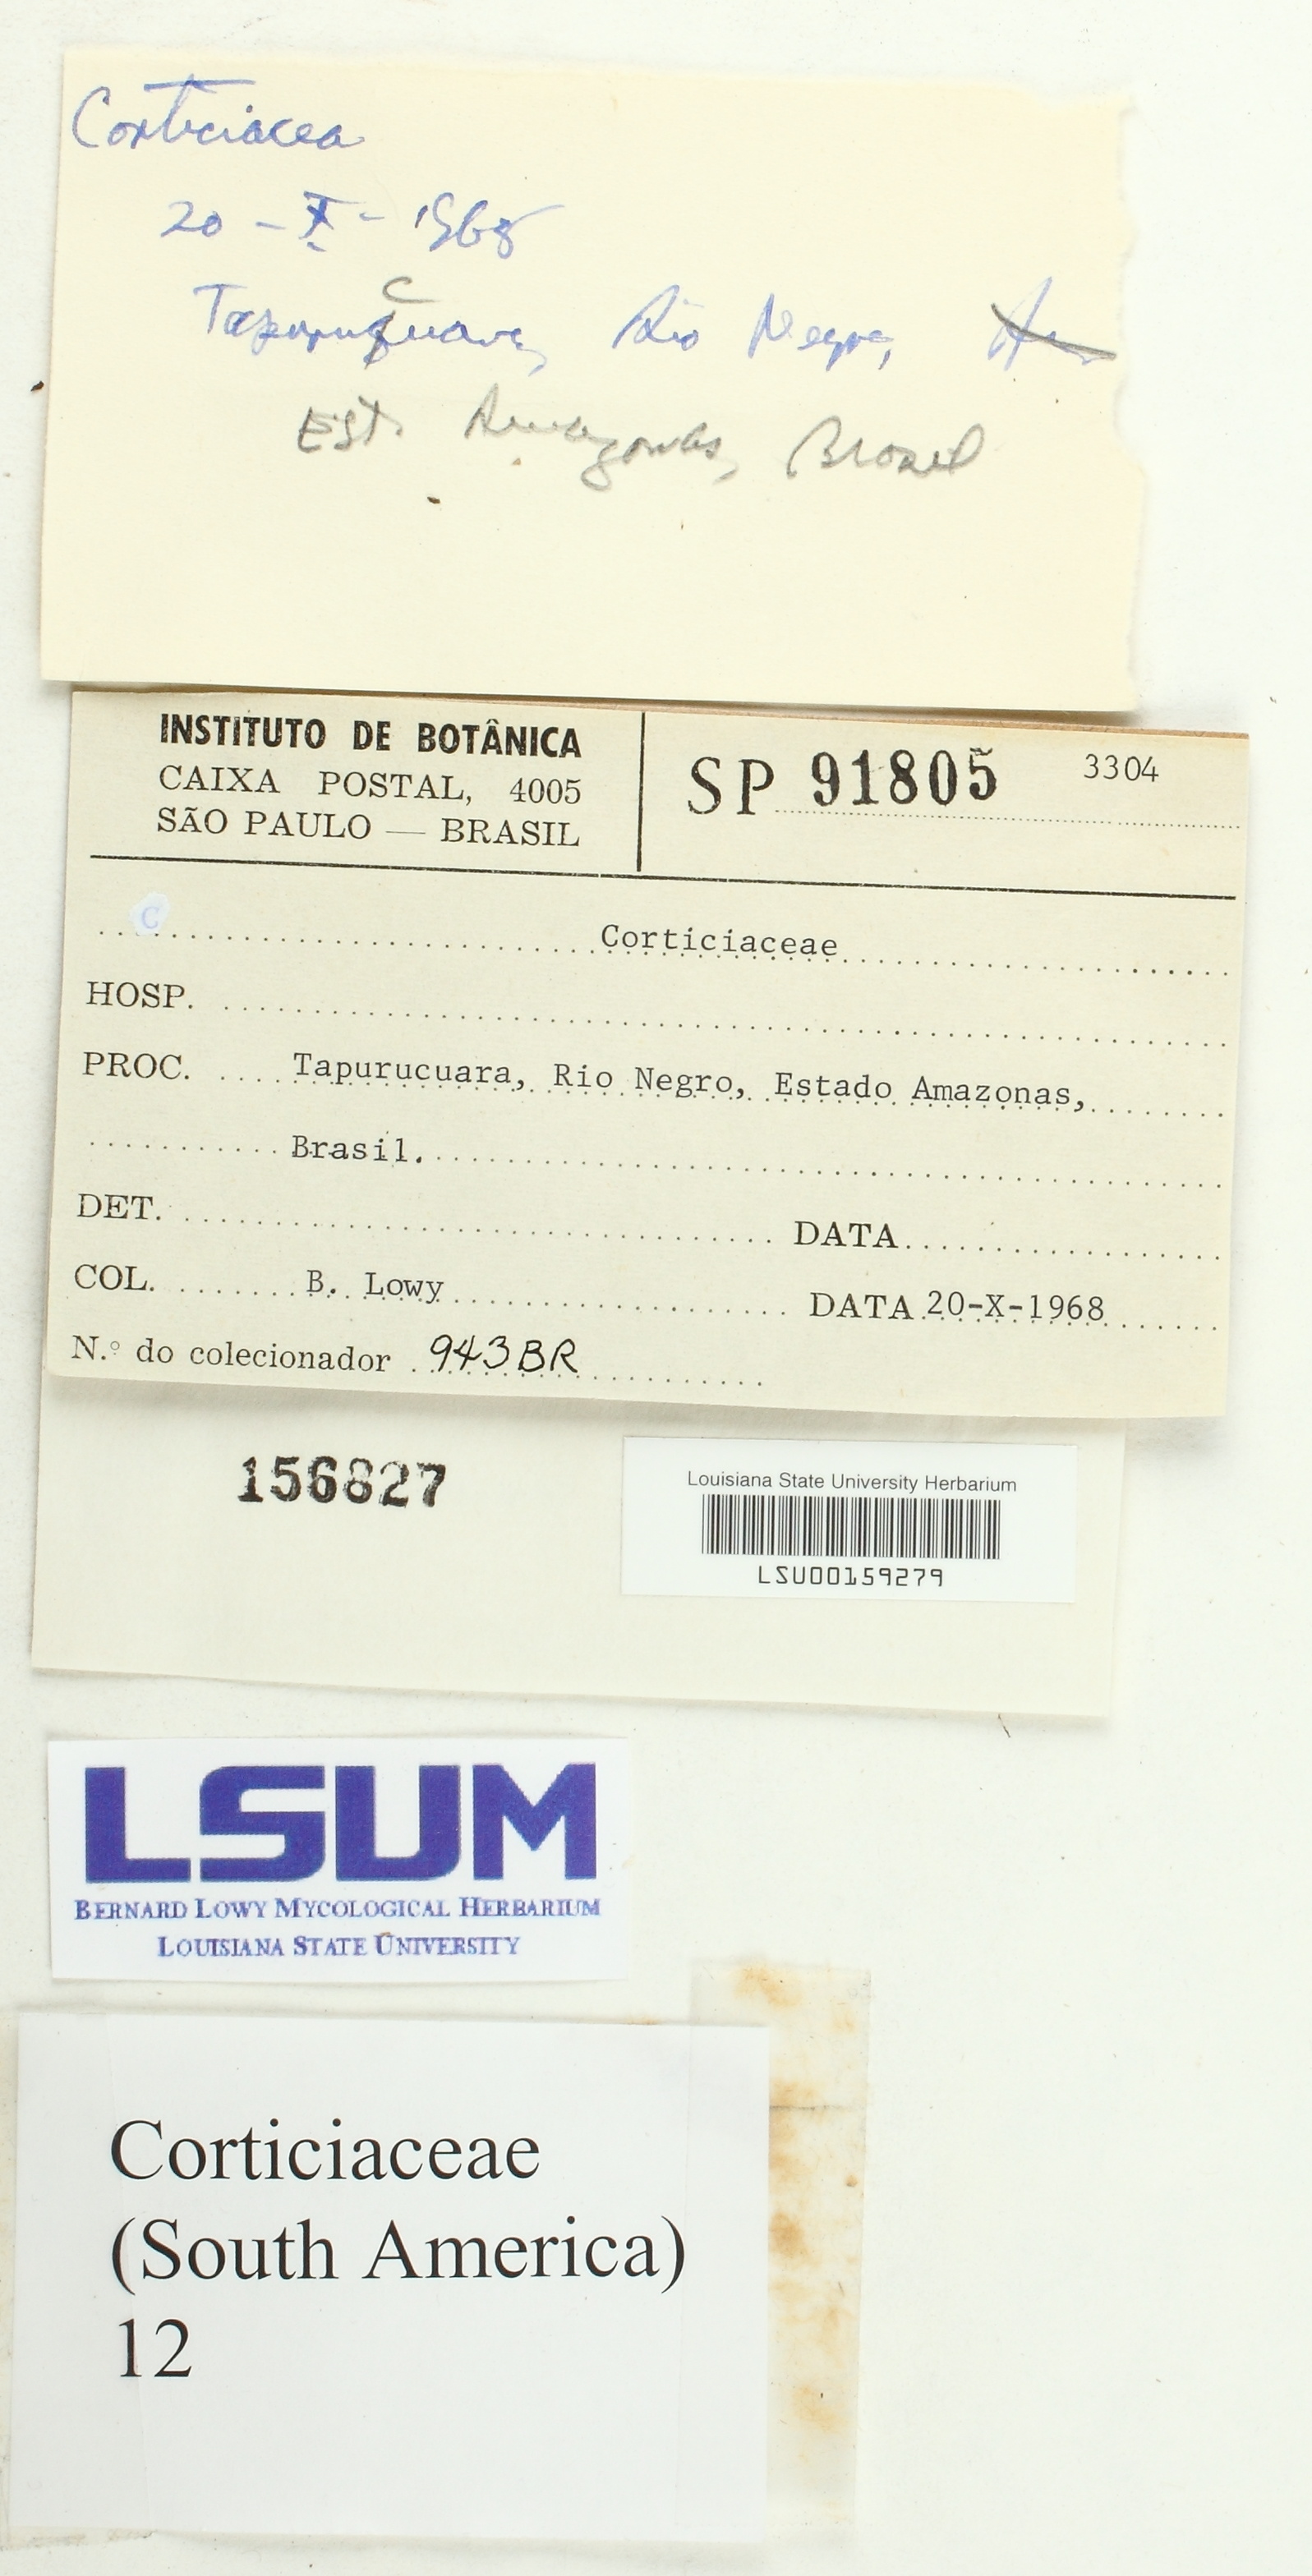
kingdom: Fungi
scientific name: Fungi
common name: Fungi
